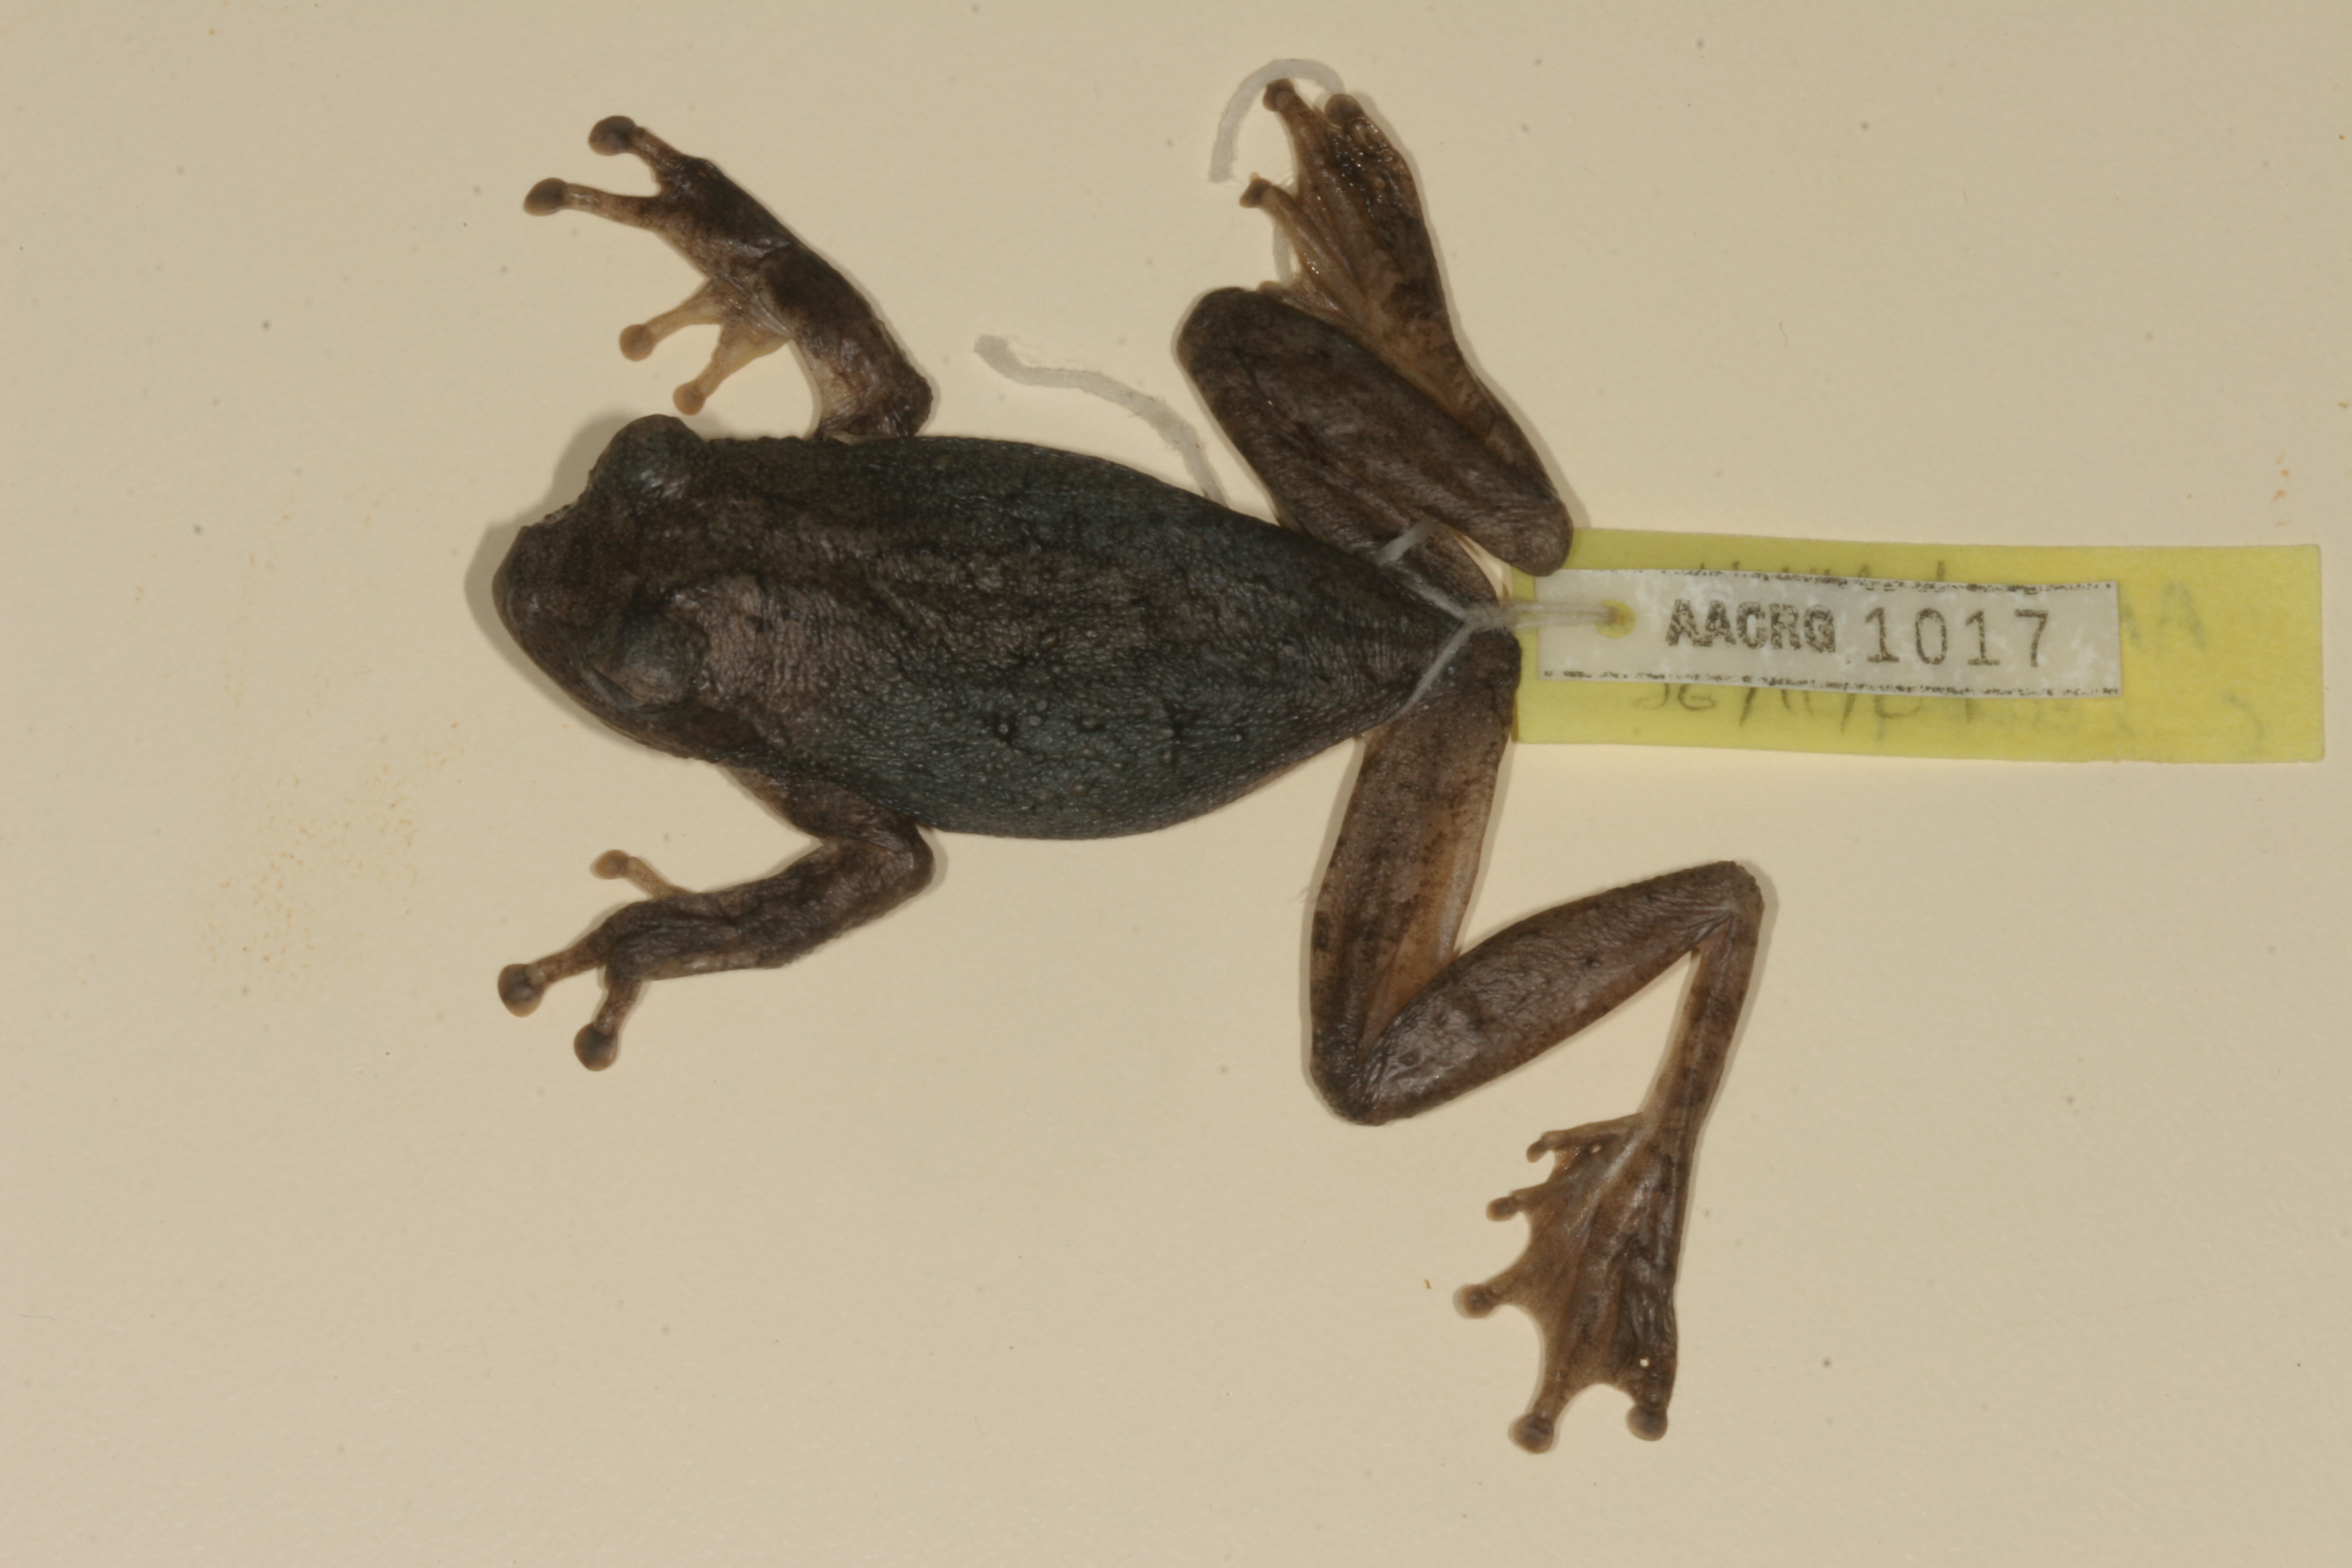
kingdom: Animalia
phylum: Chordata
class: Amphibia
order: Anura
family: Rhacophoridae
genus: Chiromantis
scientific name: Chiromantis xerampelina
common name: African gray treefrog
